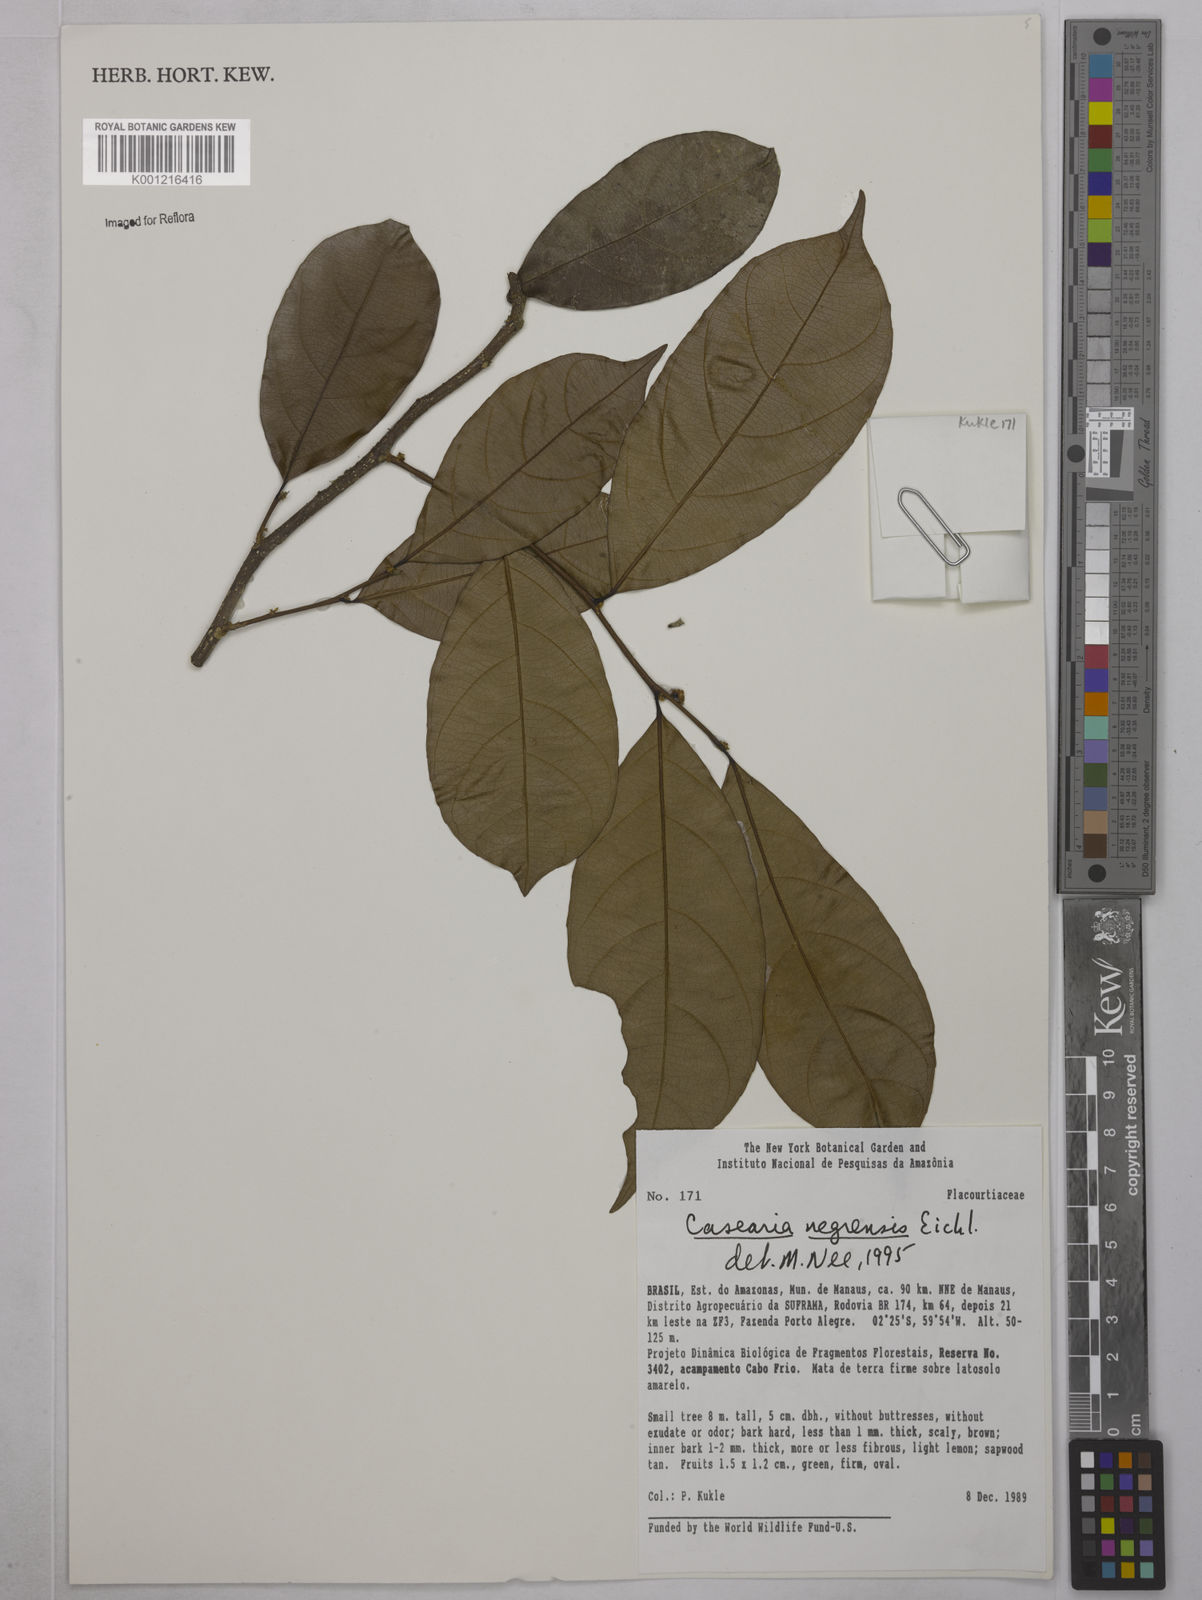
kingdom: Plantae
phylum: Tracheophyta
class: Magnoliopsida
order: Malpighiales
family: Salicaceae
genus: Casearia
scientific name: Casearia negrensis
